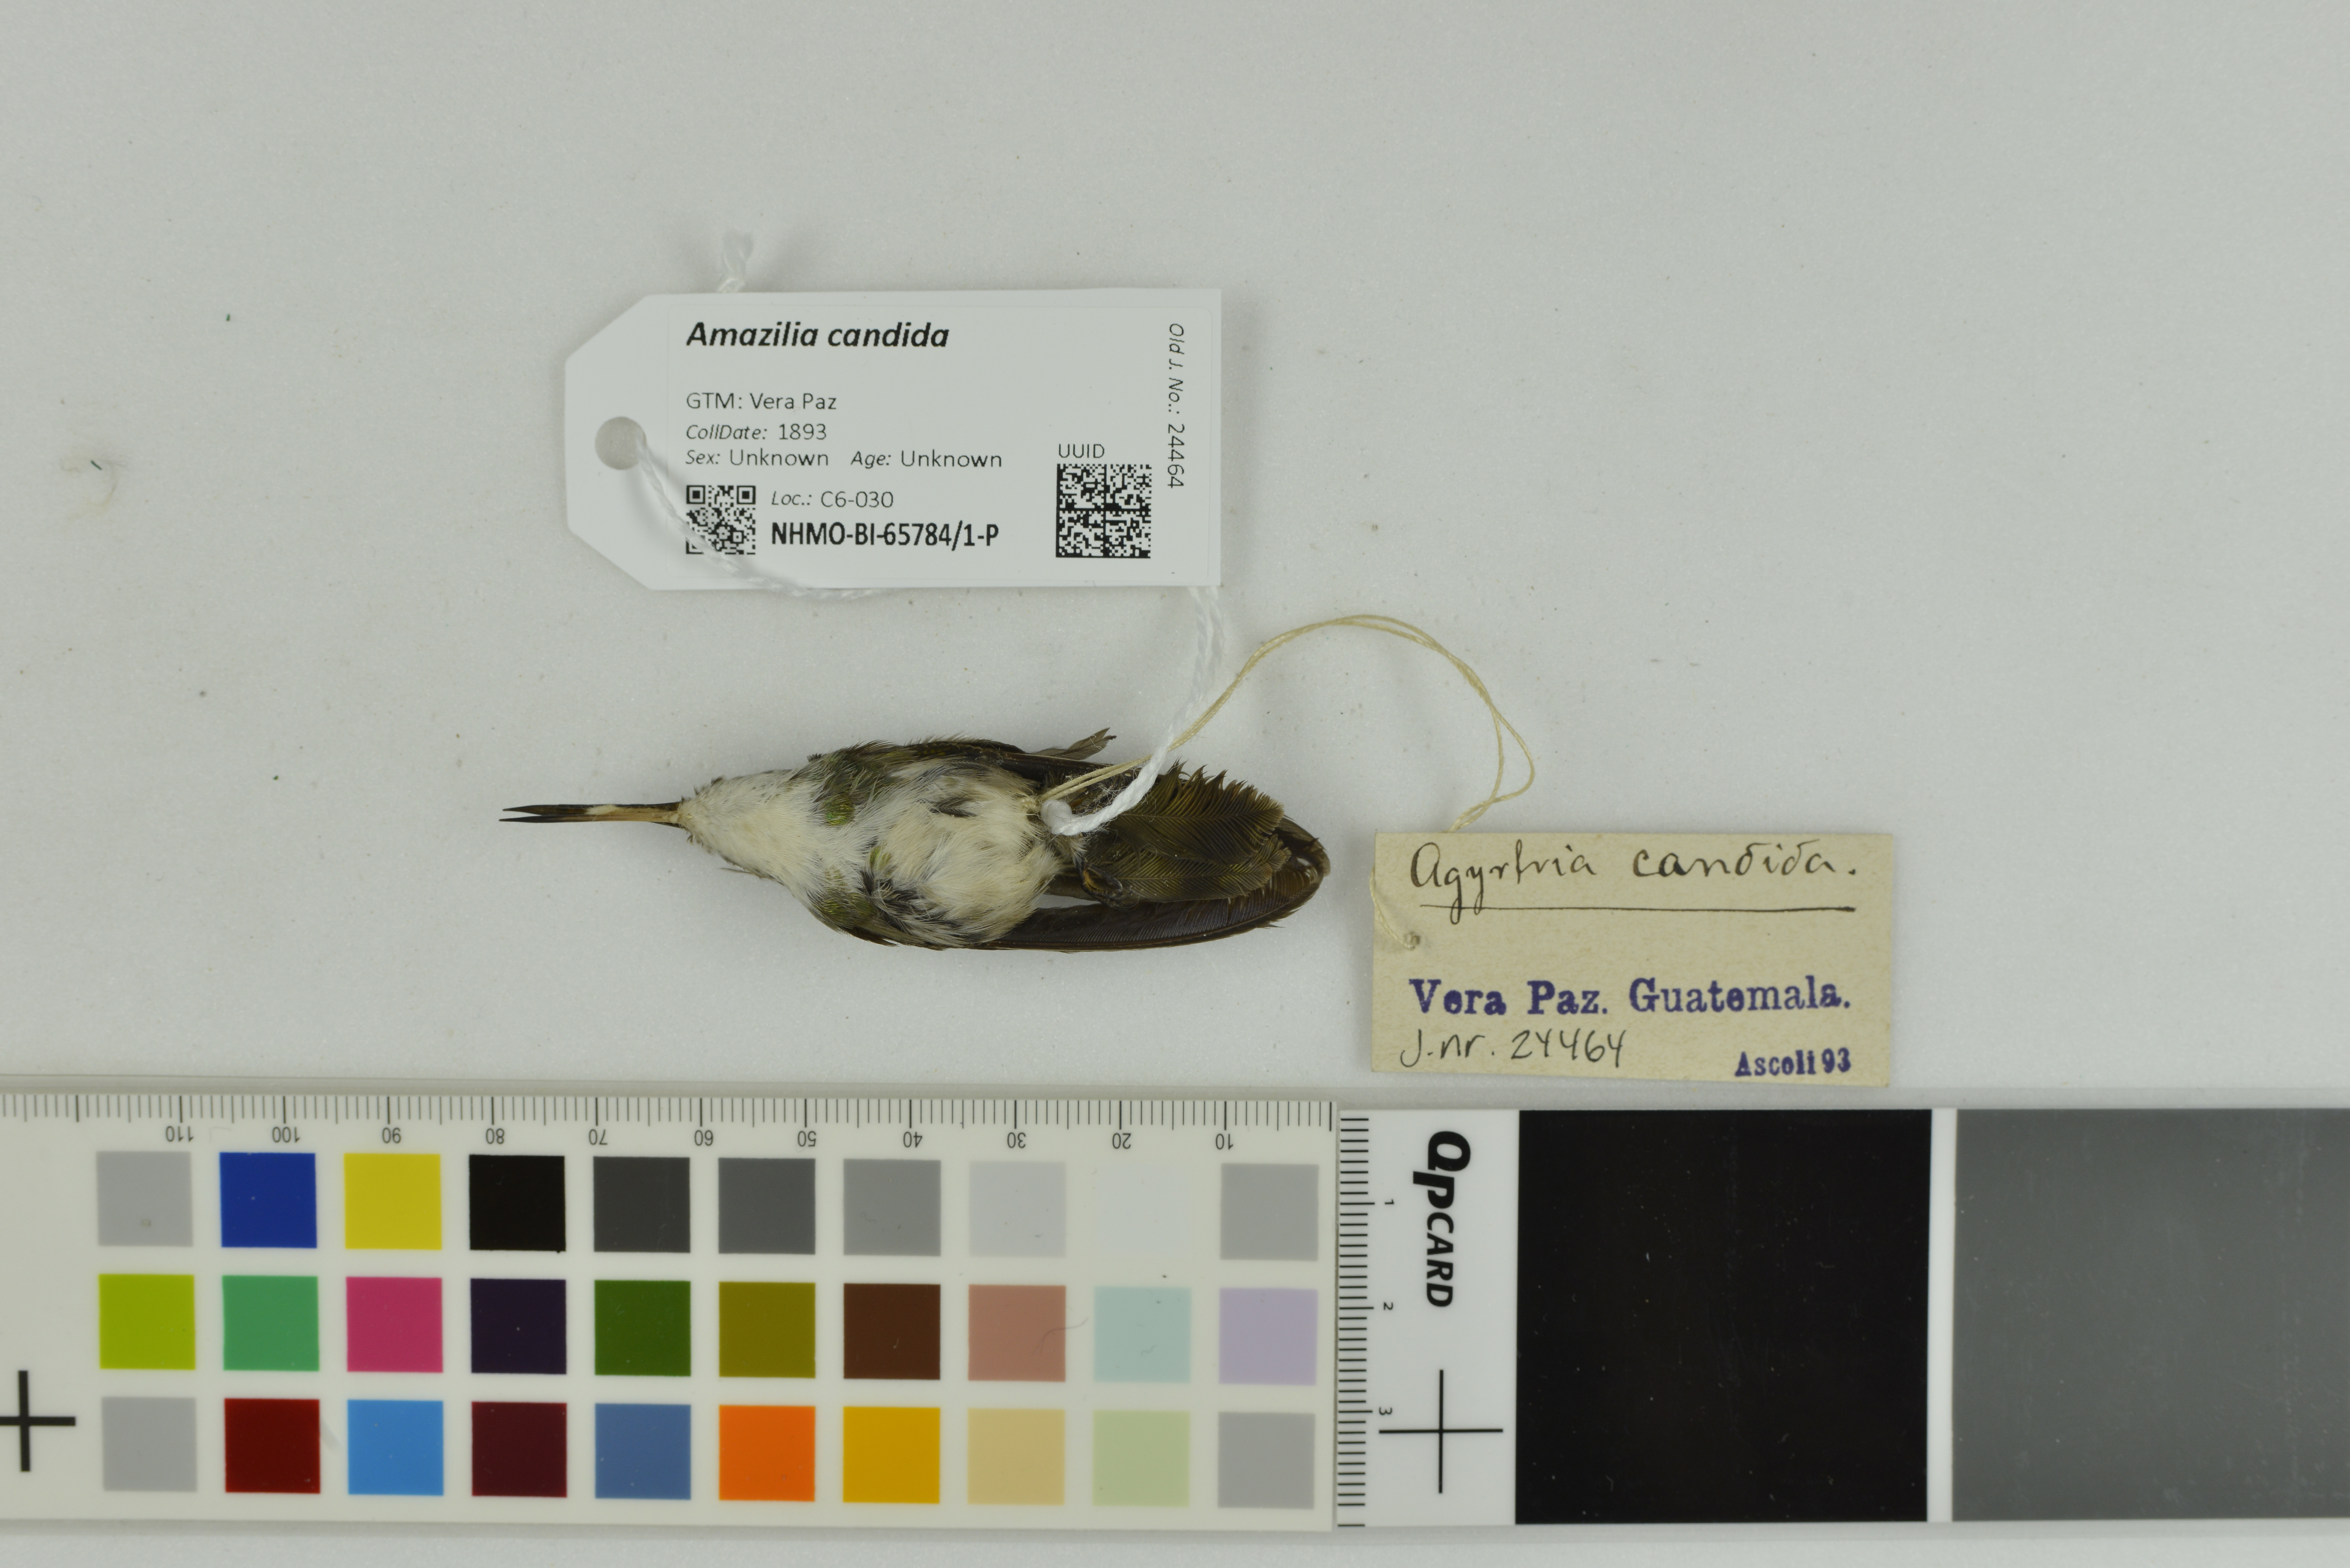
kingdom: Animalia
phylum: Chordata
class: Aves
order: Apodiformes
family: Trochilidae
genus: Chlorestes
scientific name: Chlorestes candida
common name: White-bellied emerald
